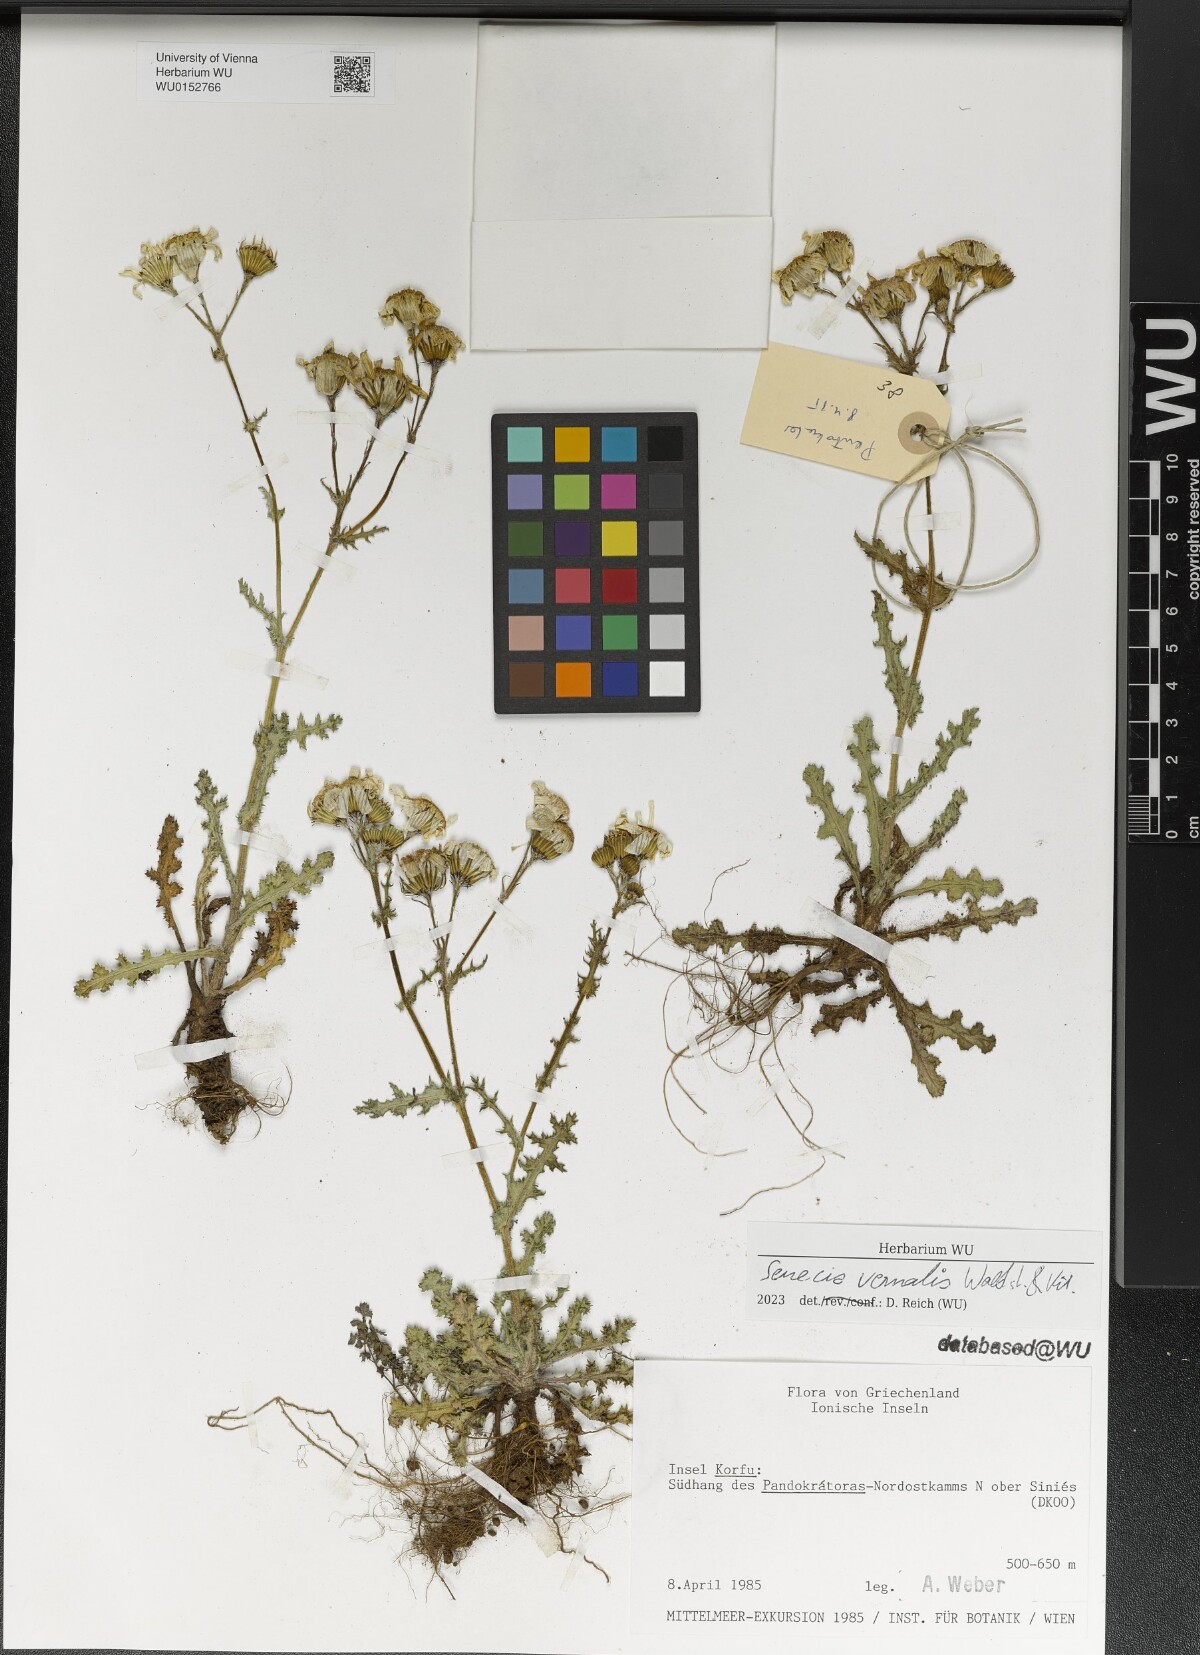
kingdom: Plantae
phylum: Tracheophyta
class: Magnoliopsida
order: Asterales
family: Asteraceae
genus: Senecio
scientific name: Senecio vernalis
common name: Eastern groundsel
